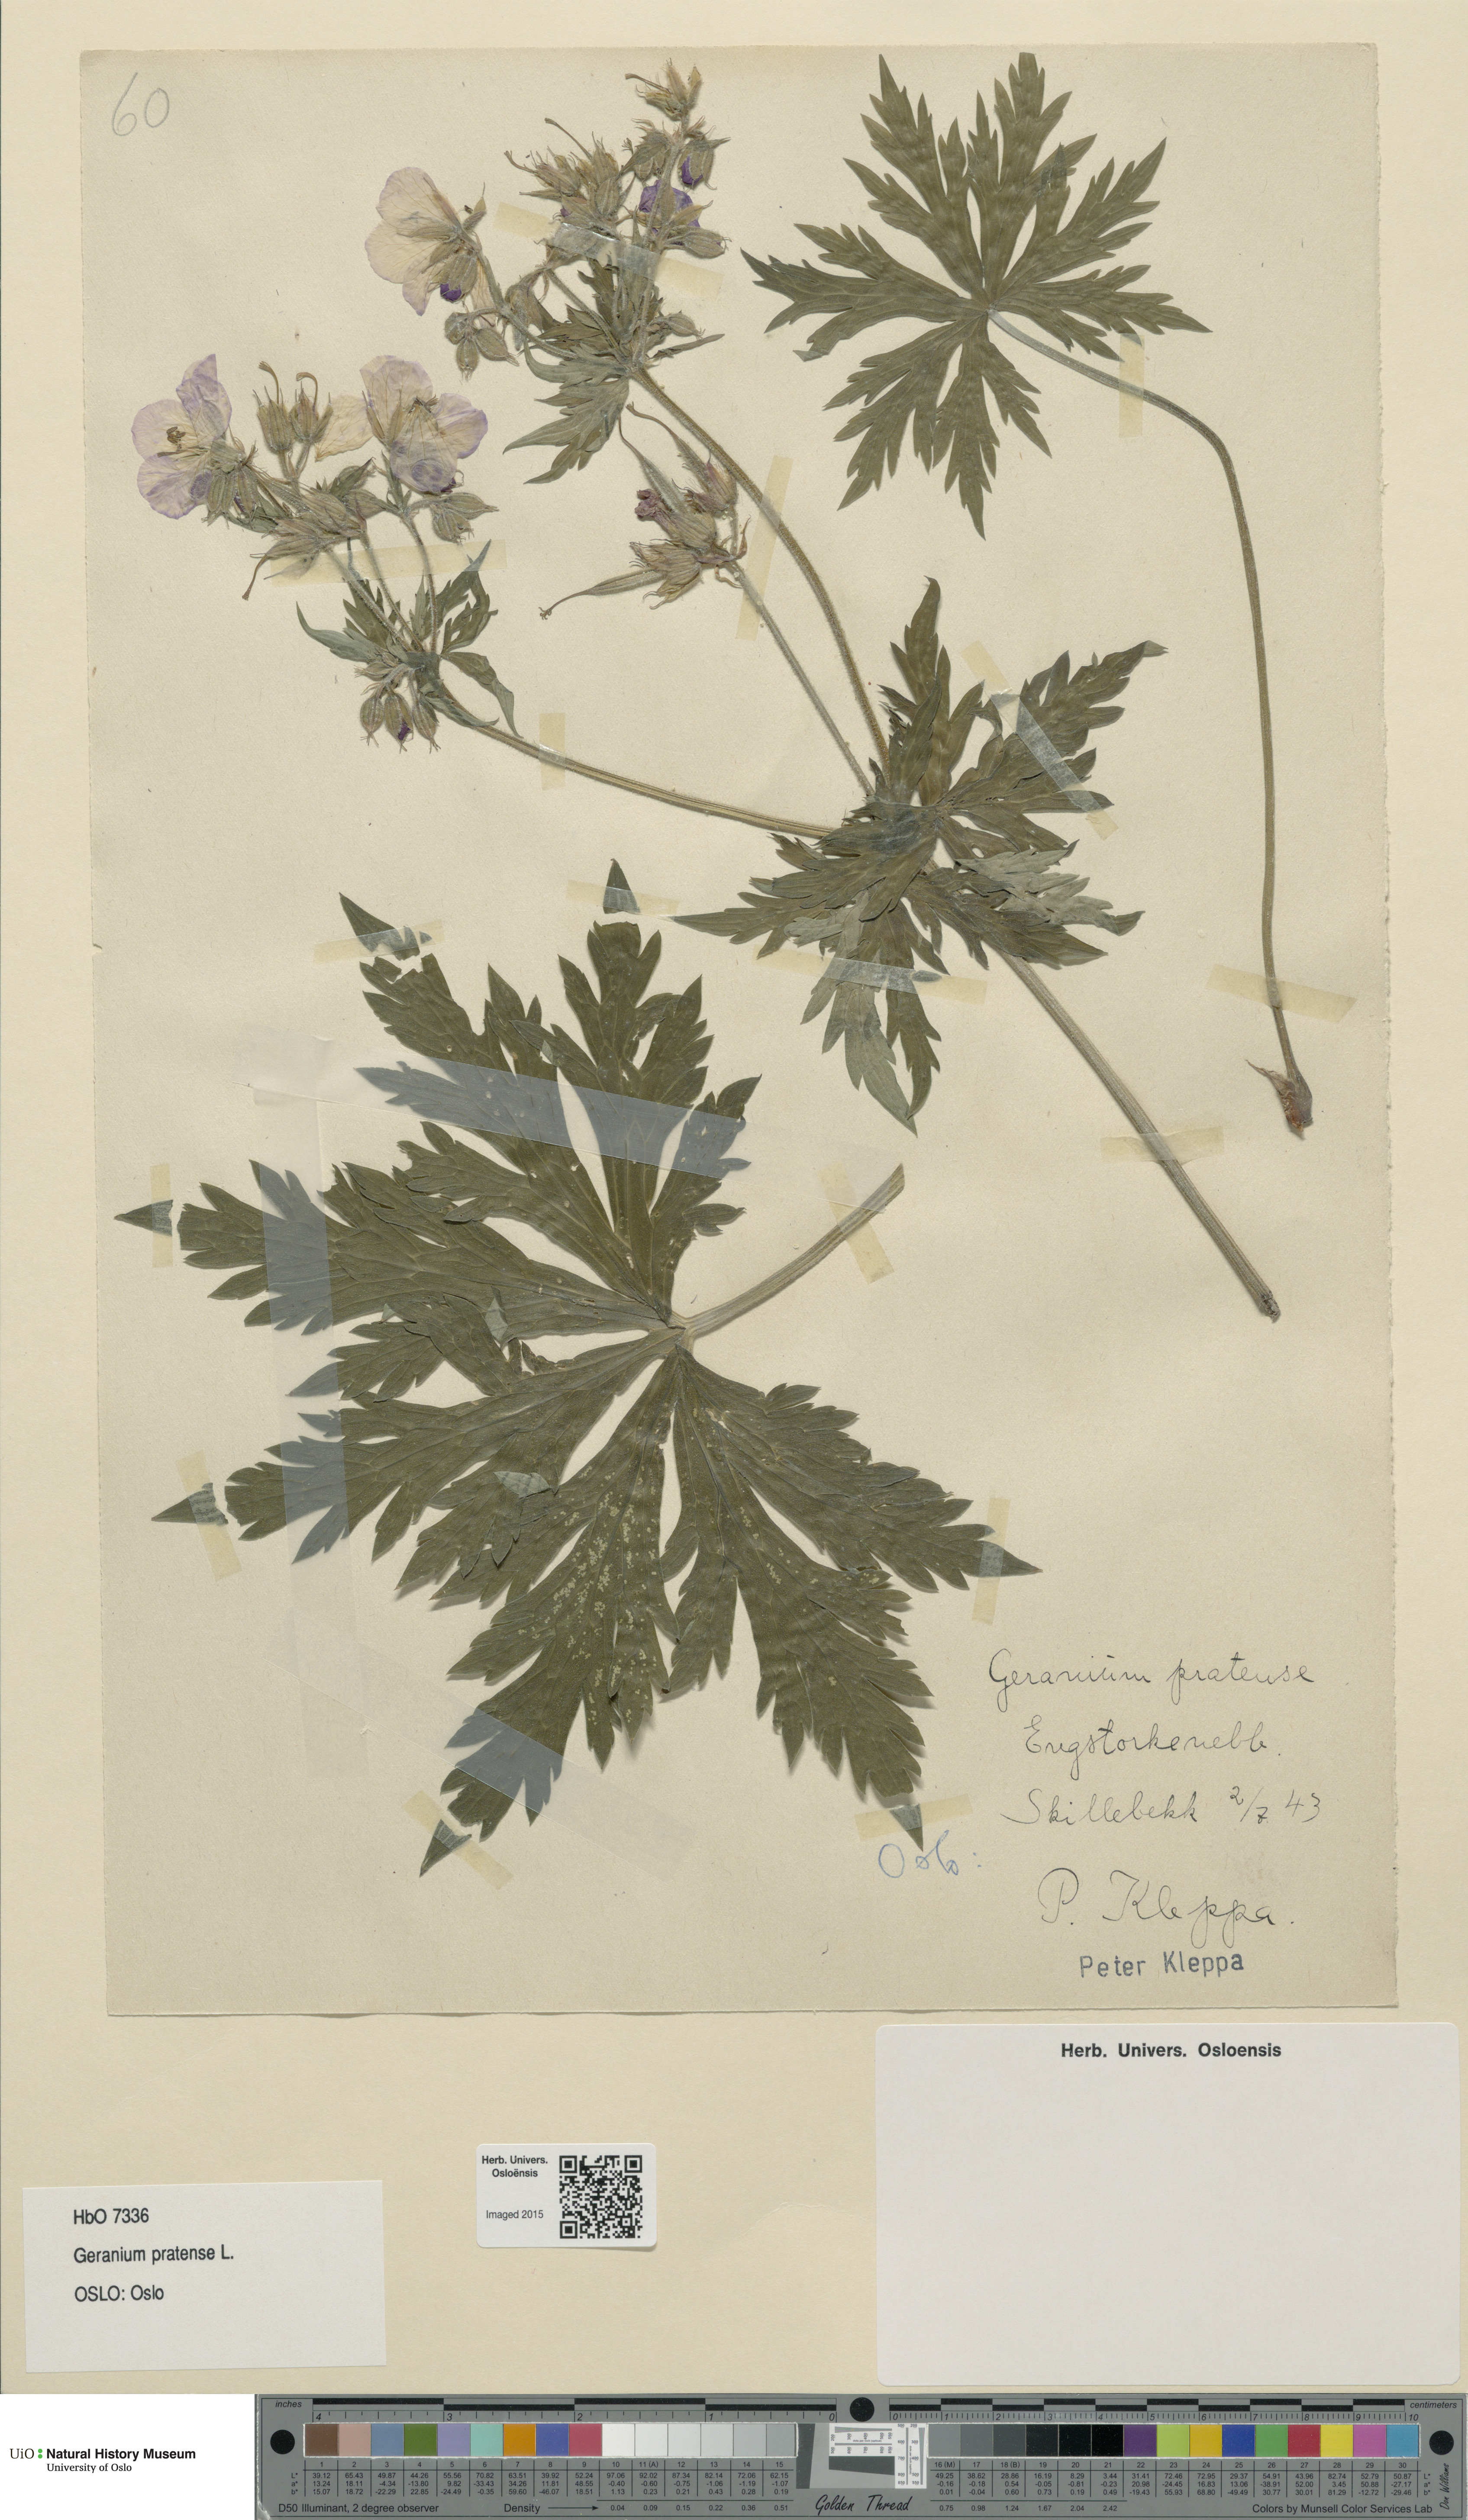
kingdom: Plantae
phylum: Tracheophyta
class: Magnoliopsida
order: Geraniales
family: Geraniaceae
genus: Geranium
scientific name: Geranium pratense
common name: Meadow crane's-bill
